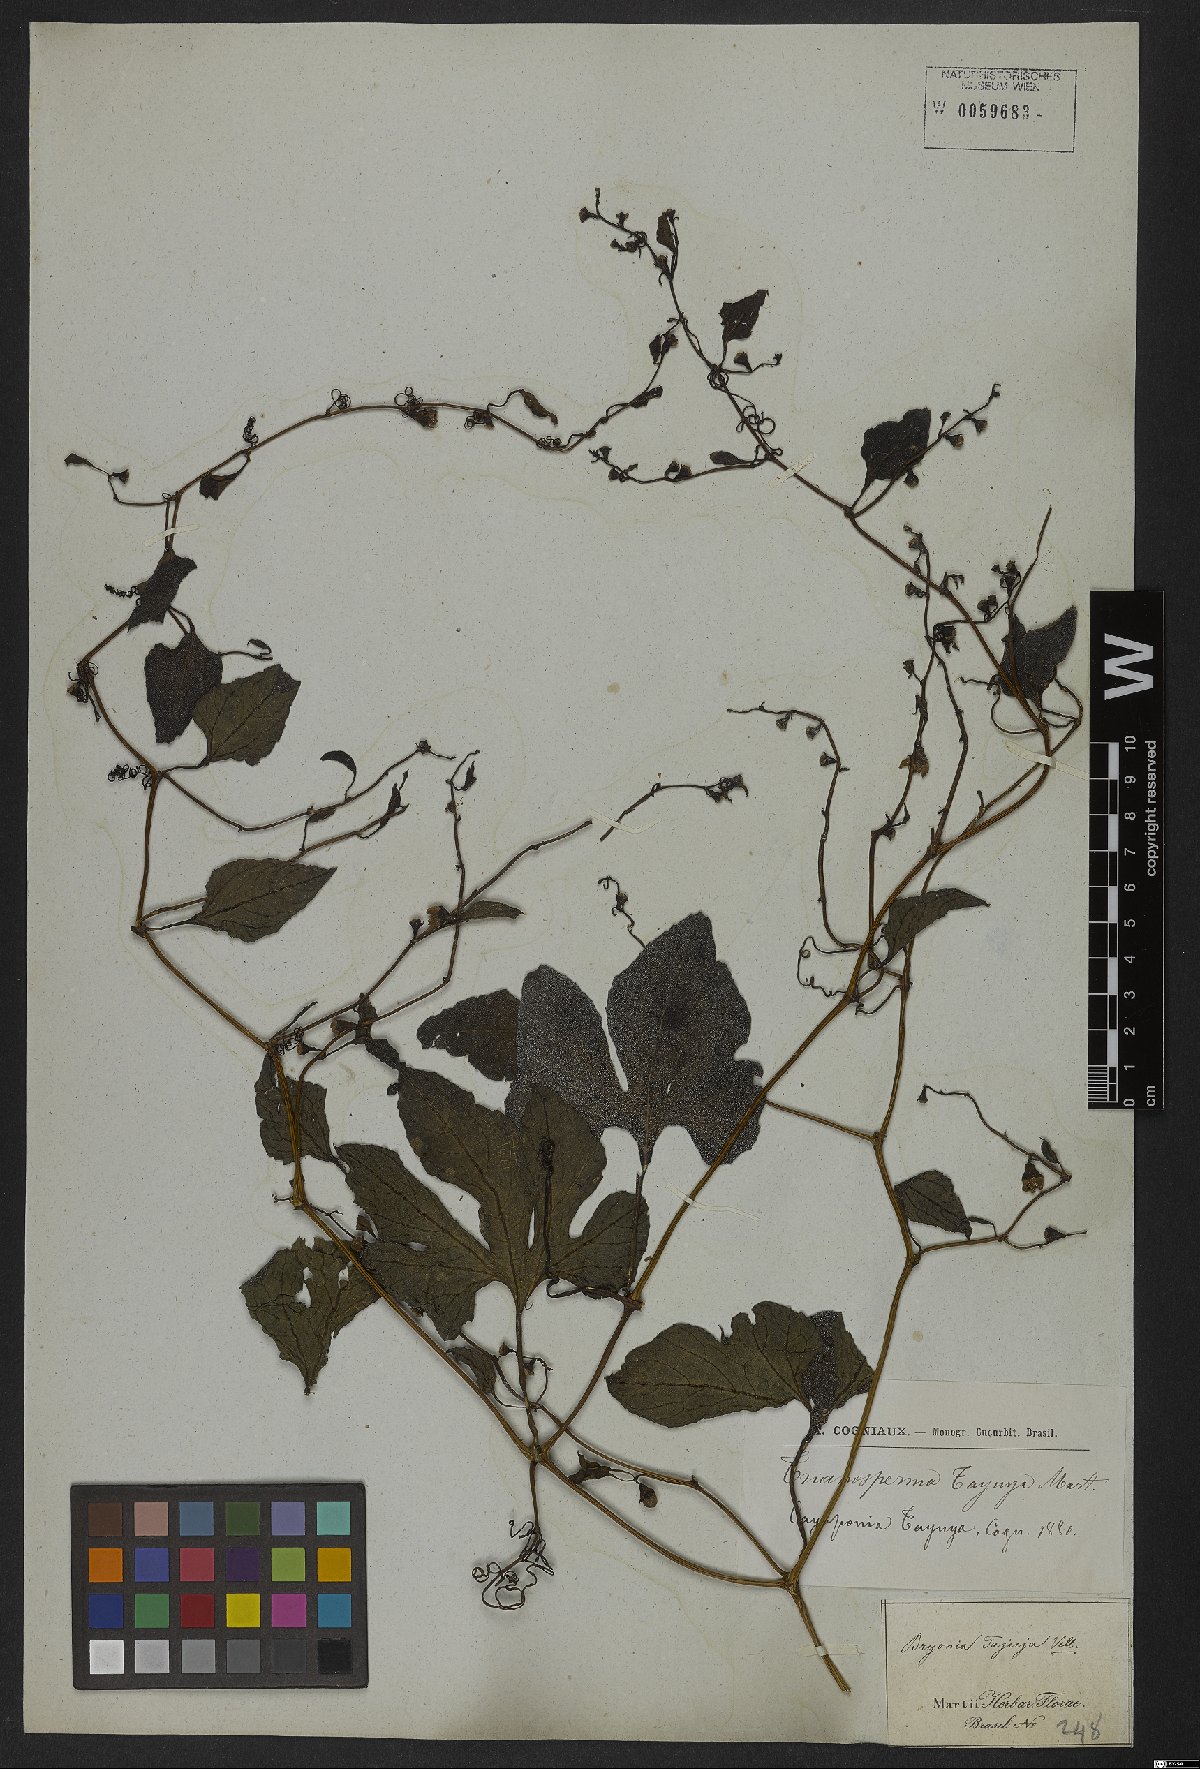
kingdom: Plantae
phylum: Tracheophyta
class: Magnoliopsida
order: Cucurbitales
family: Cucurbitaceae
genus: Cayaponia
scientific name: Cayaponia tayuya
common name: Tayuya
